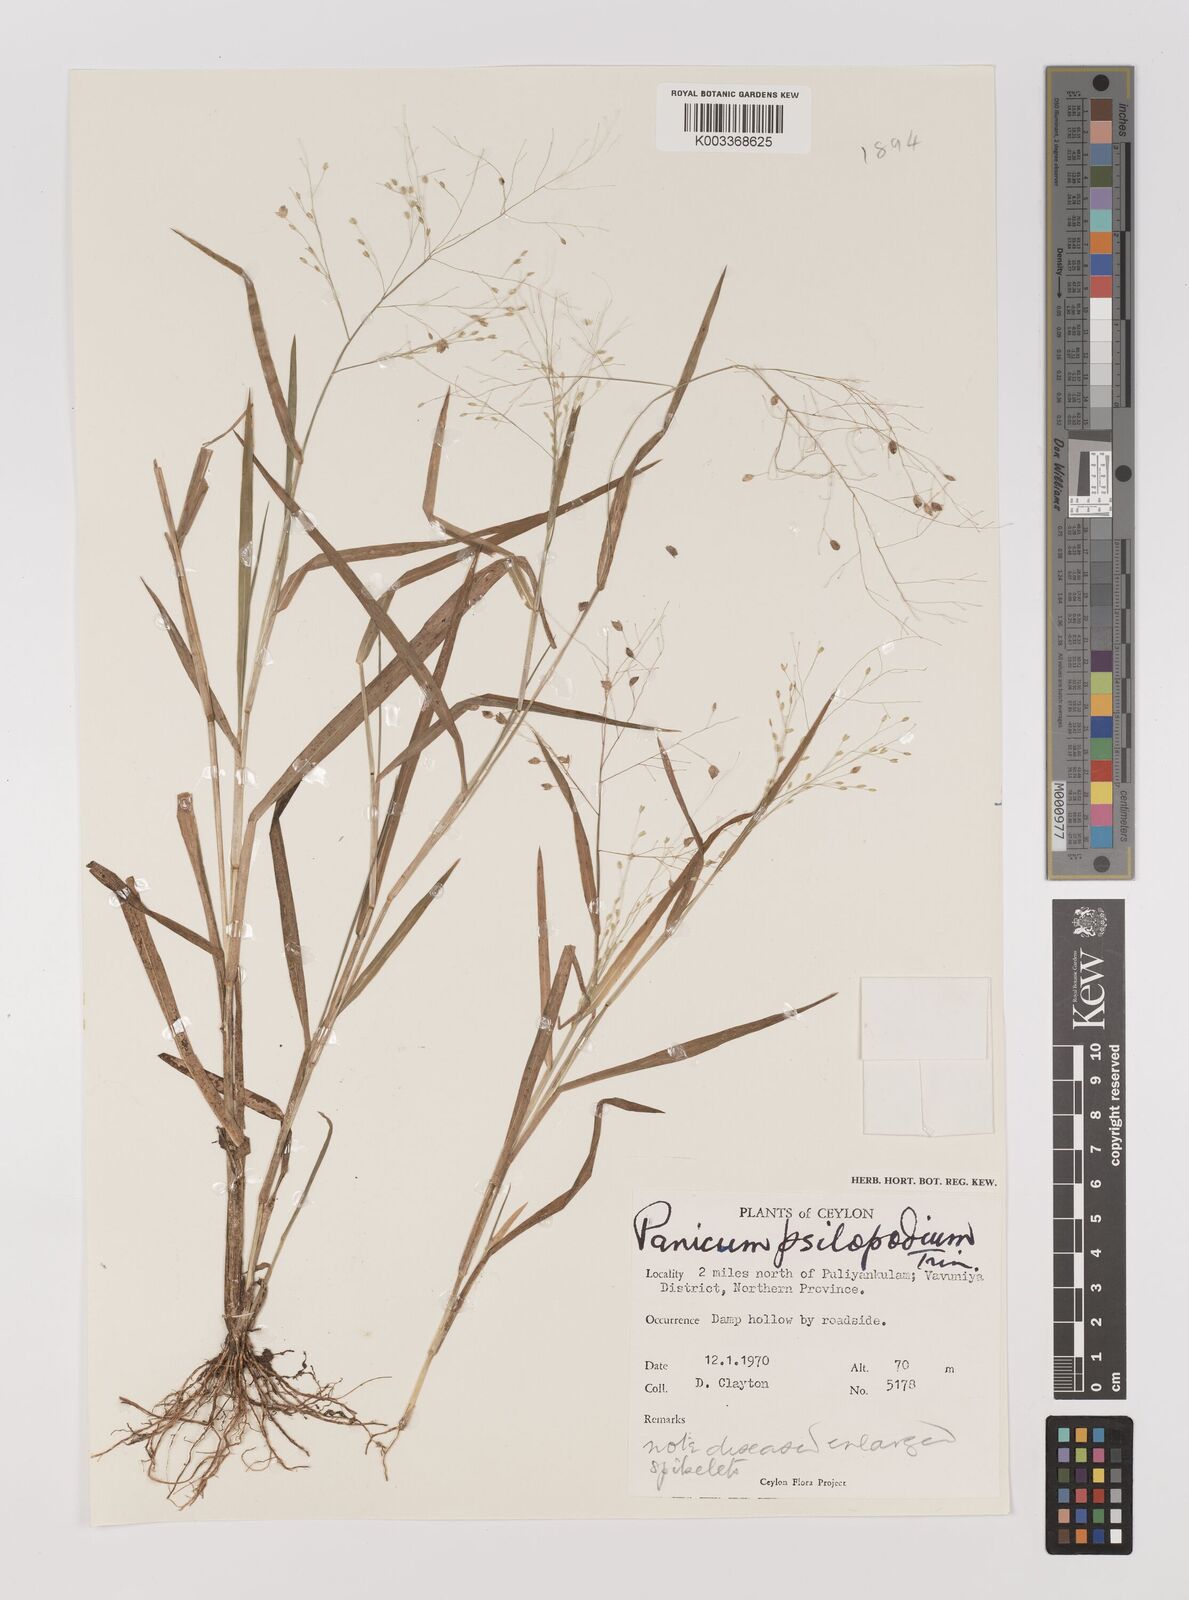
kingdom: Plantae
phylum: Tracheophyta
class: Liliopsida
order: Poales
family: Poaceae
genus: Panicum
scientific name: Panicum sumatrense
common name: Little millet
